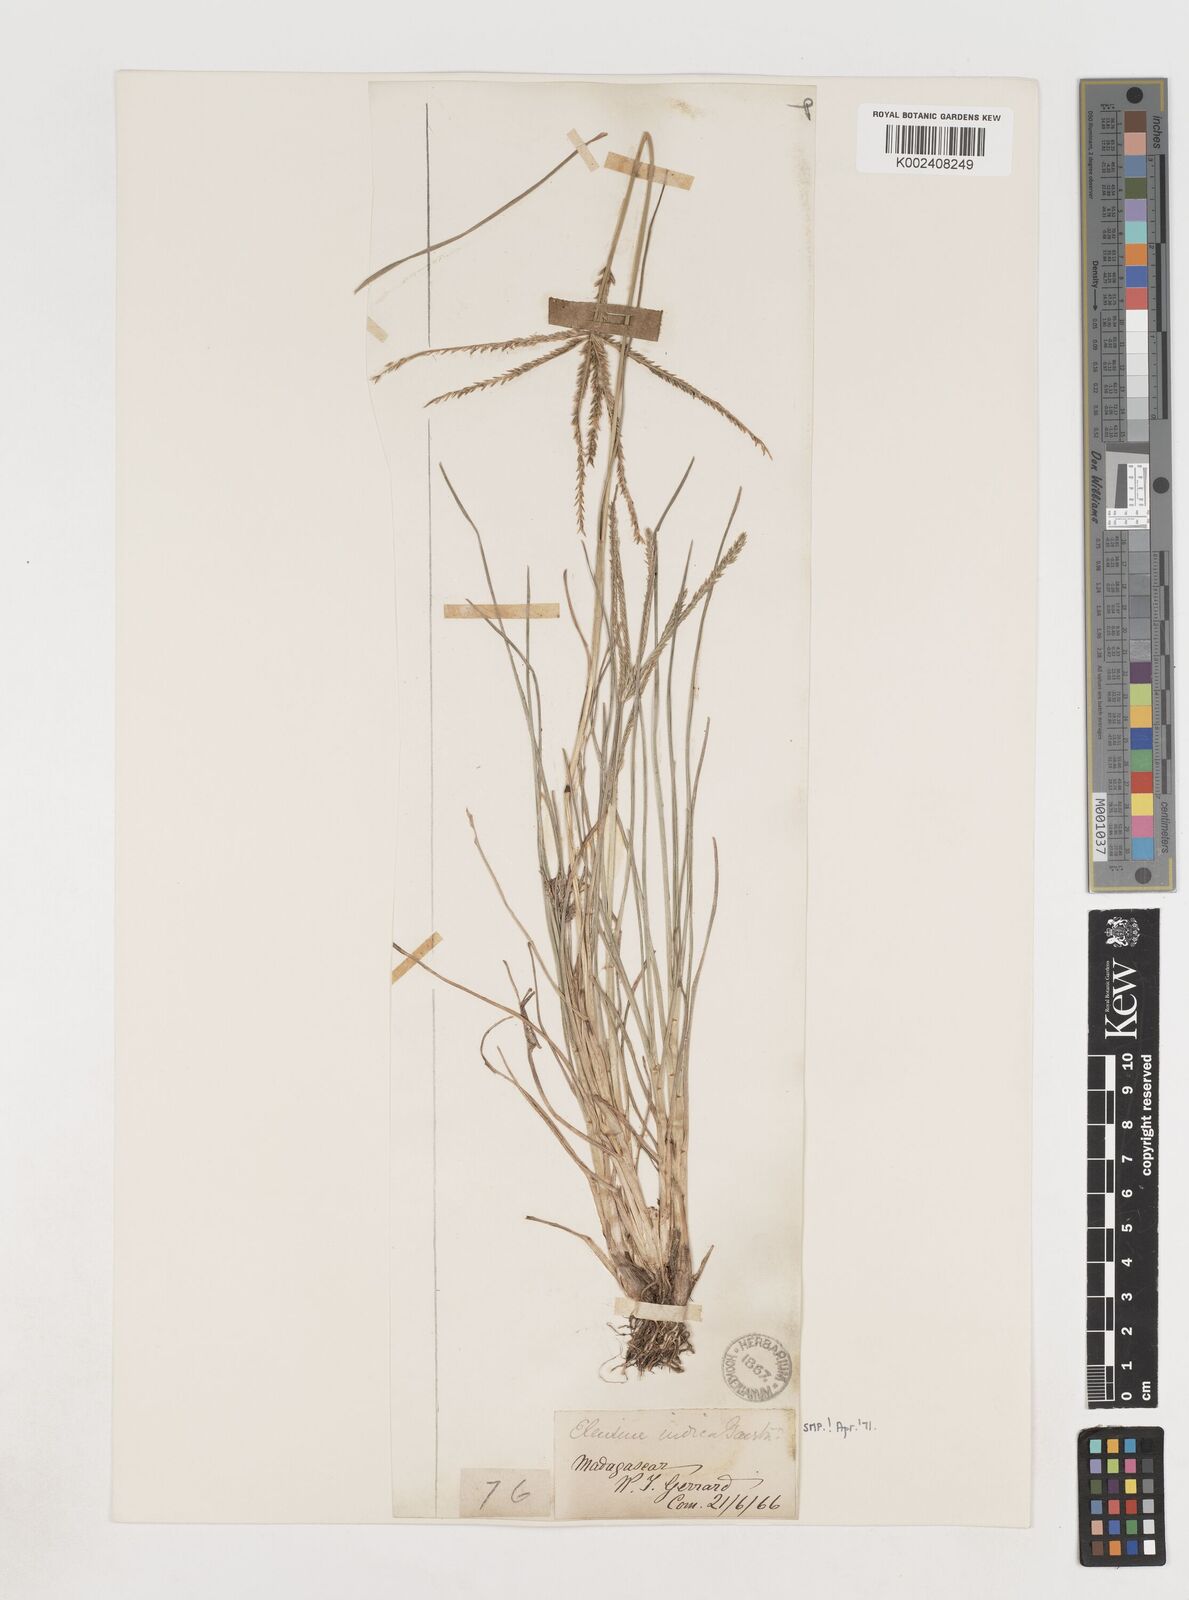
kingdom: Plantae
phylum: Tracheophyta
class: Liliopsida
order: Poales
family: Poaceae
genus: Eleusine
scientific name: Eleusine indica
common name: Yard-grass
